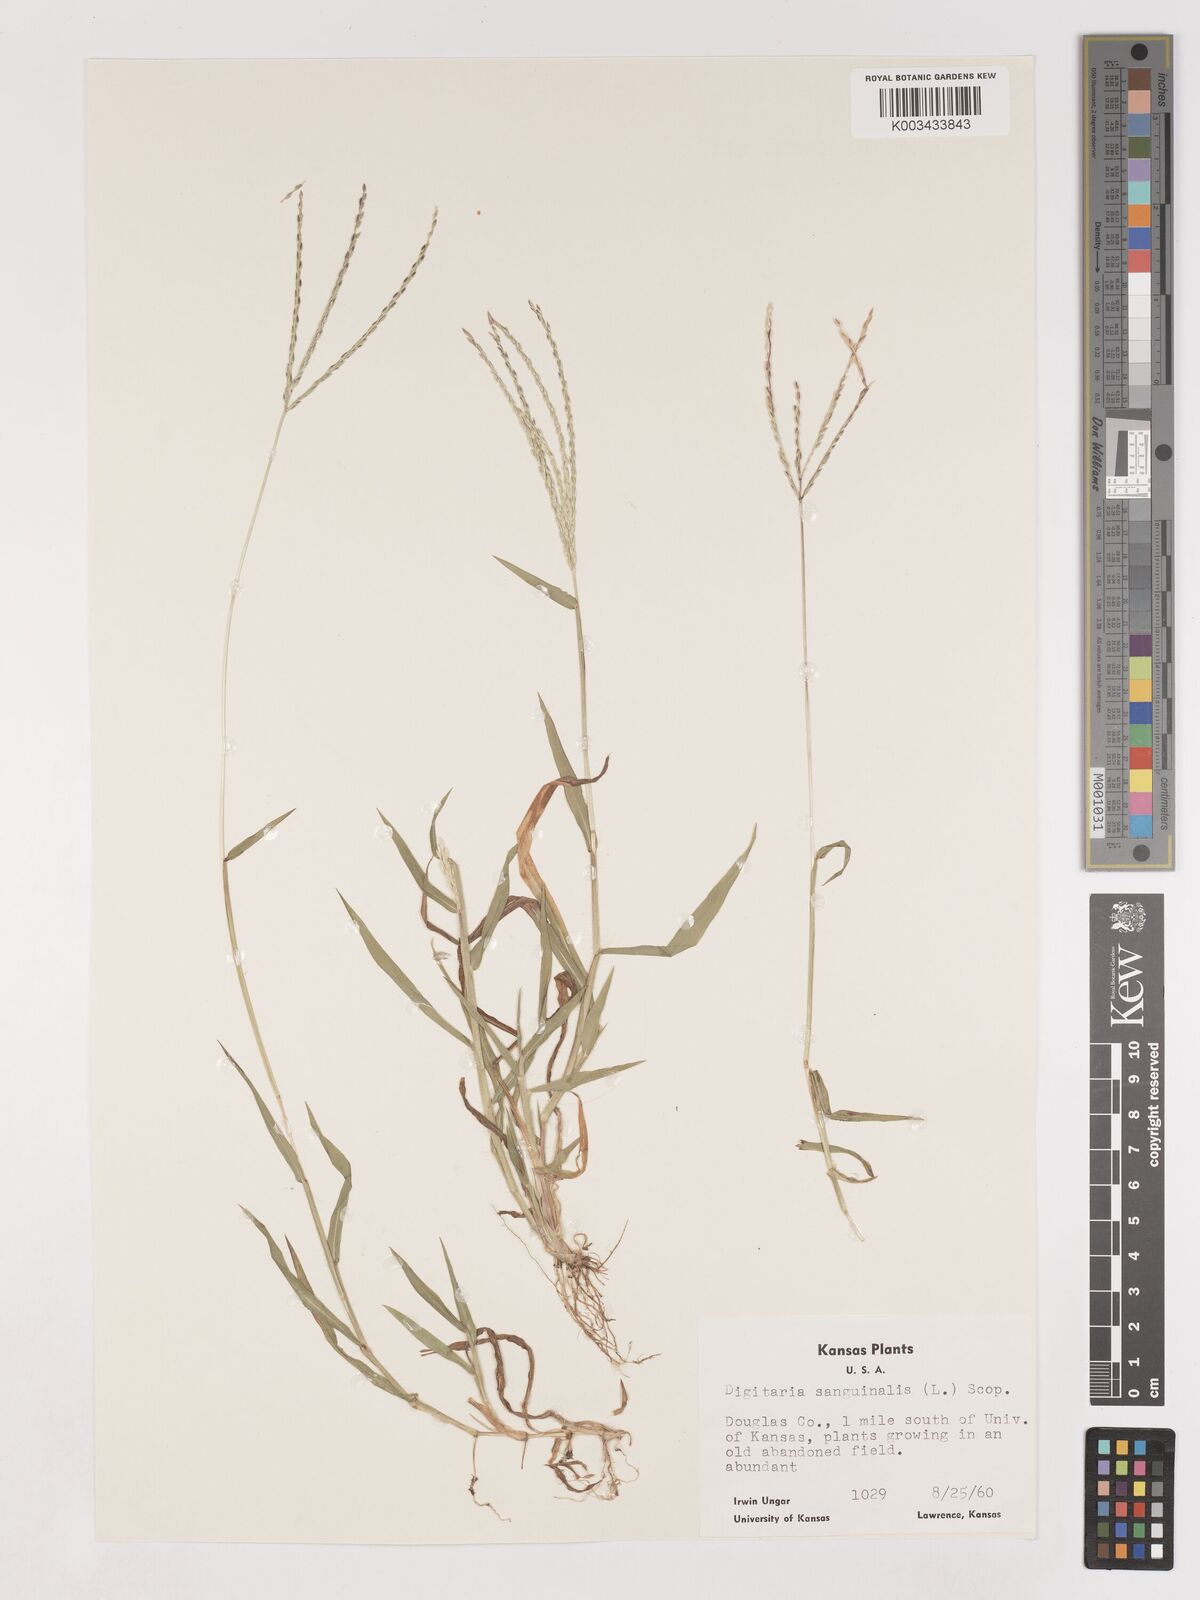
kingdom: Plantae
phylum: Tracheophyta
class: Liliopsida
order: Poales
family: Poaceae
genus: Digitaria
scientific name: Digitaria ciliaris
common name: Tropical finger-grass
